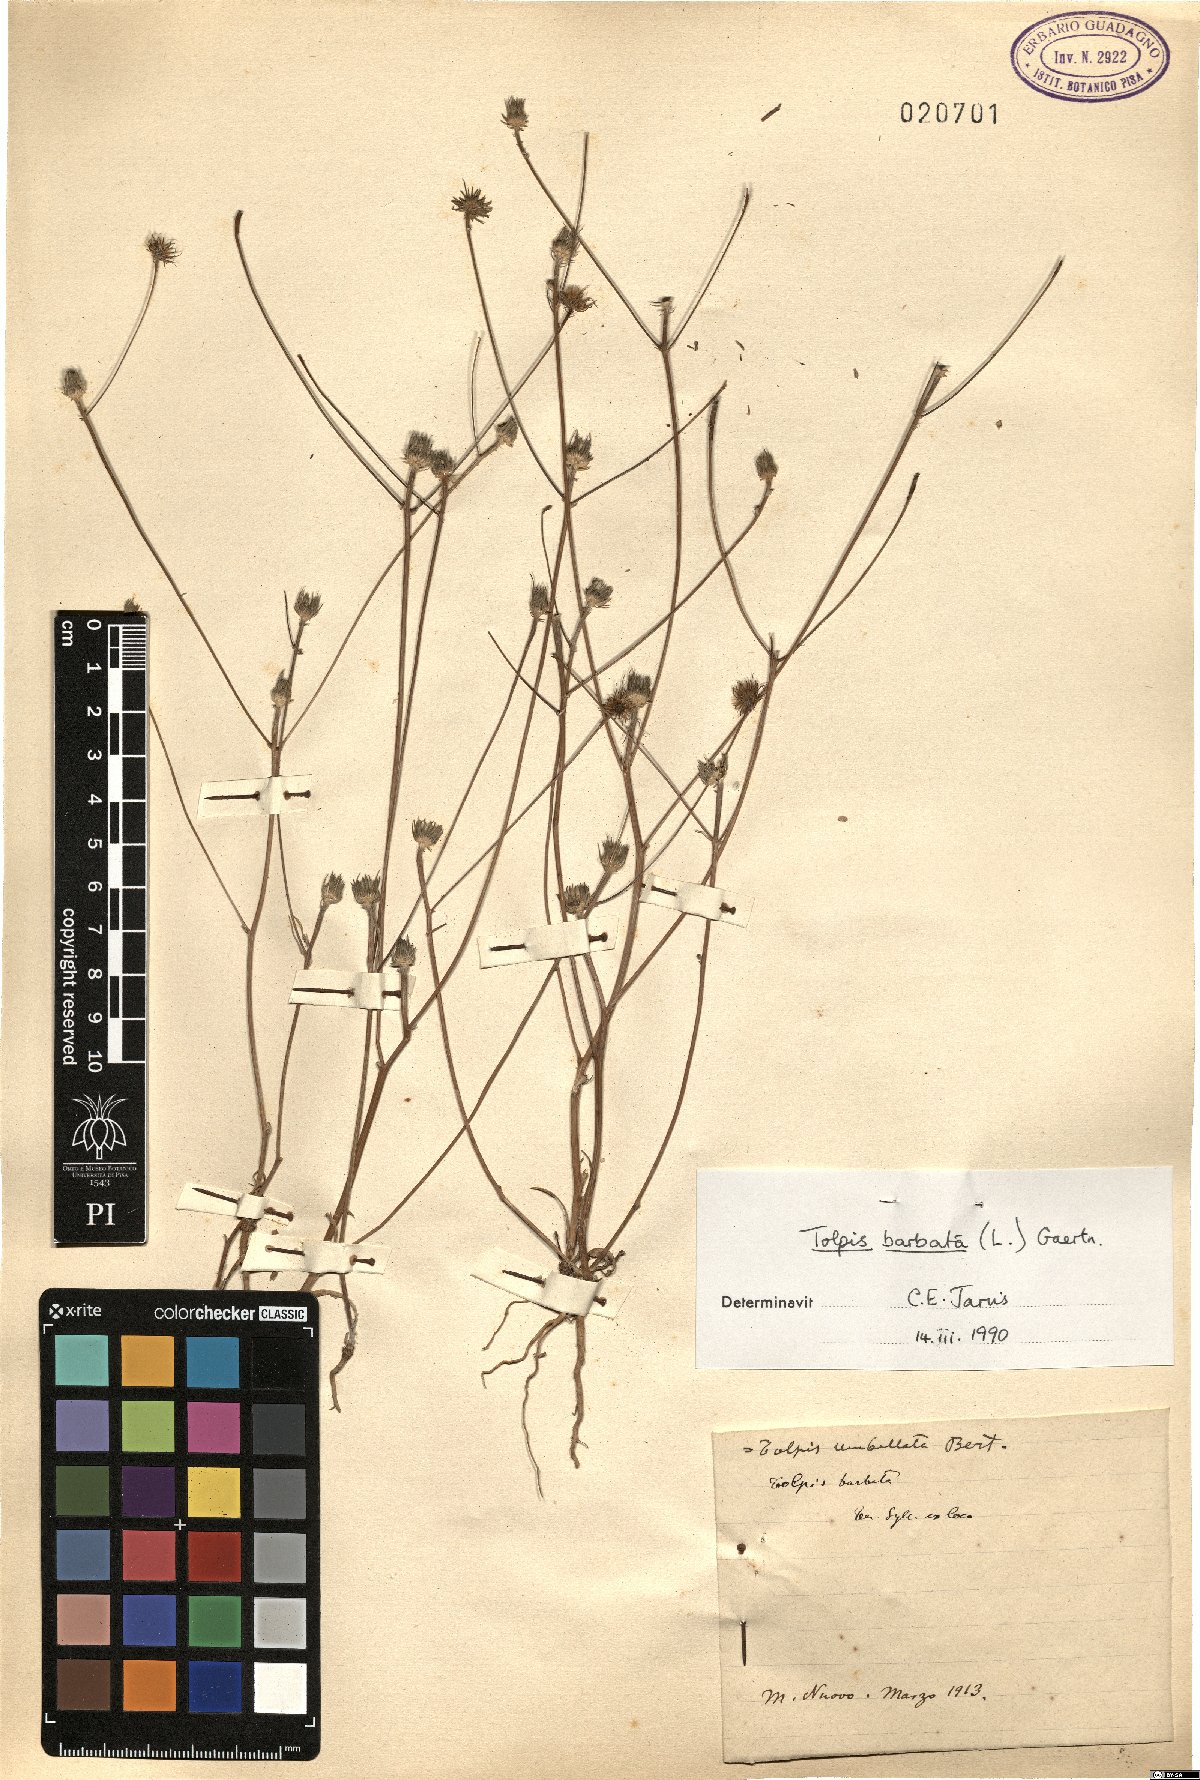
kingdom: Plantae
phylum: Tracheophyta
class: Magnoliopsida
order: Asterales
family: Asteraceae
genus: Tolpis
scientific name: Tolpis barbata
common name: Yellow hawkweed
